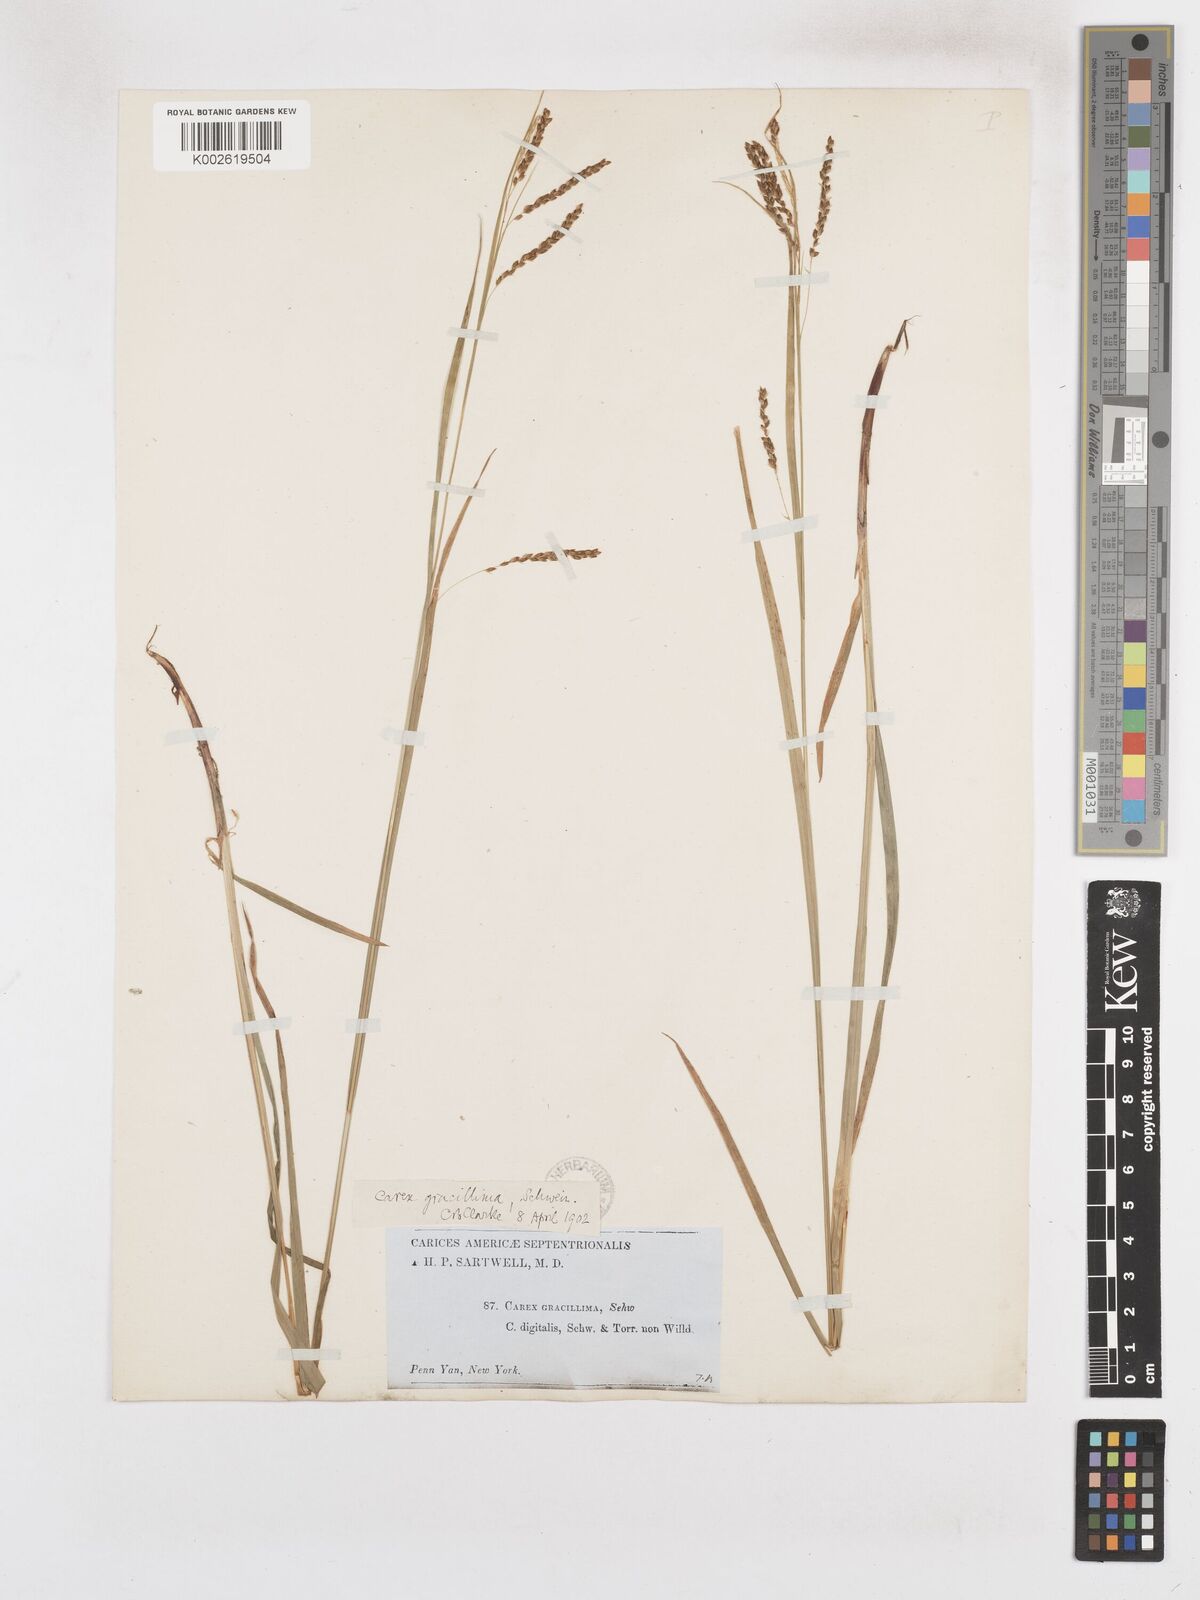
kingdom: Plantae
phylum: Tracheophyta
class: Liliopsida
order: Poales
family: Cyperaceae
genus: Carex
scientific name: Carex gracillima
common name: Graceful sedge
